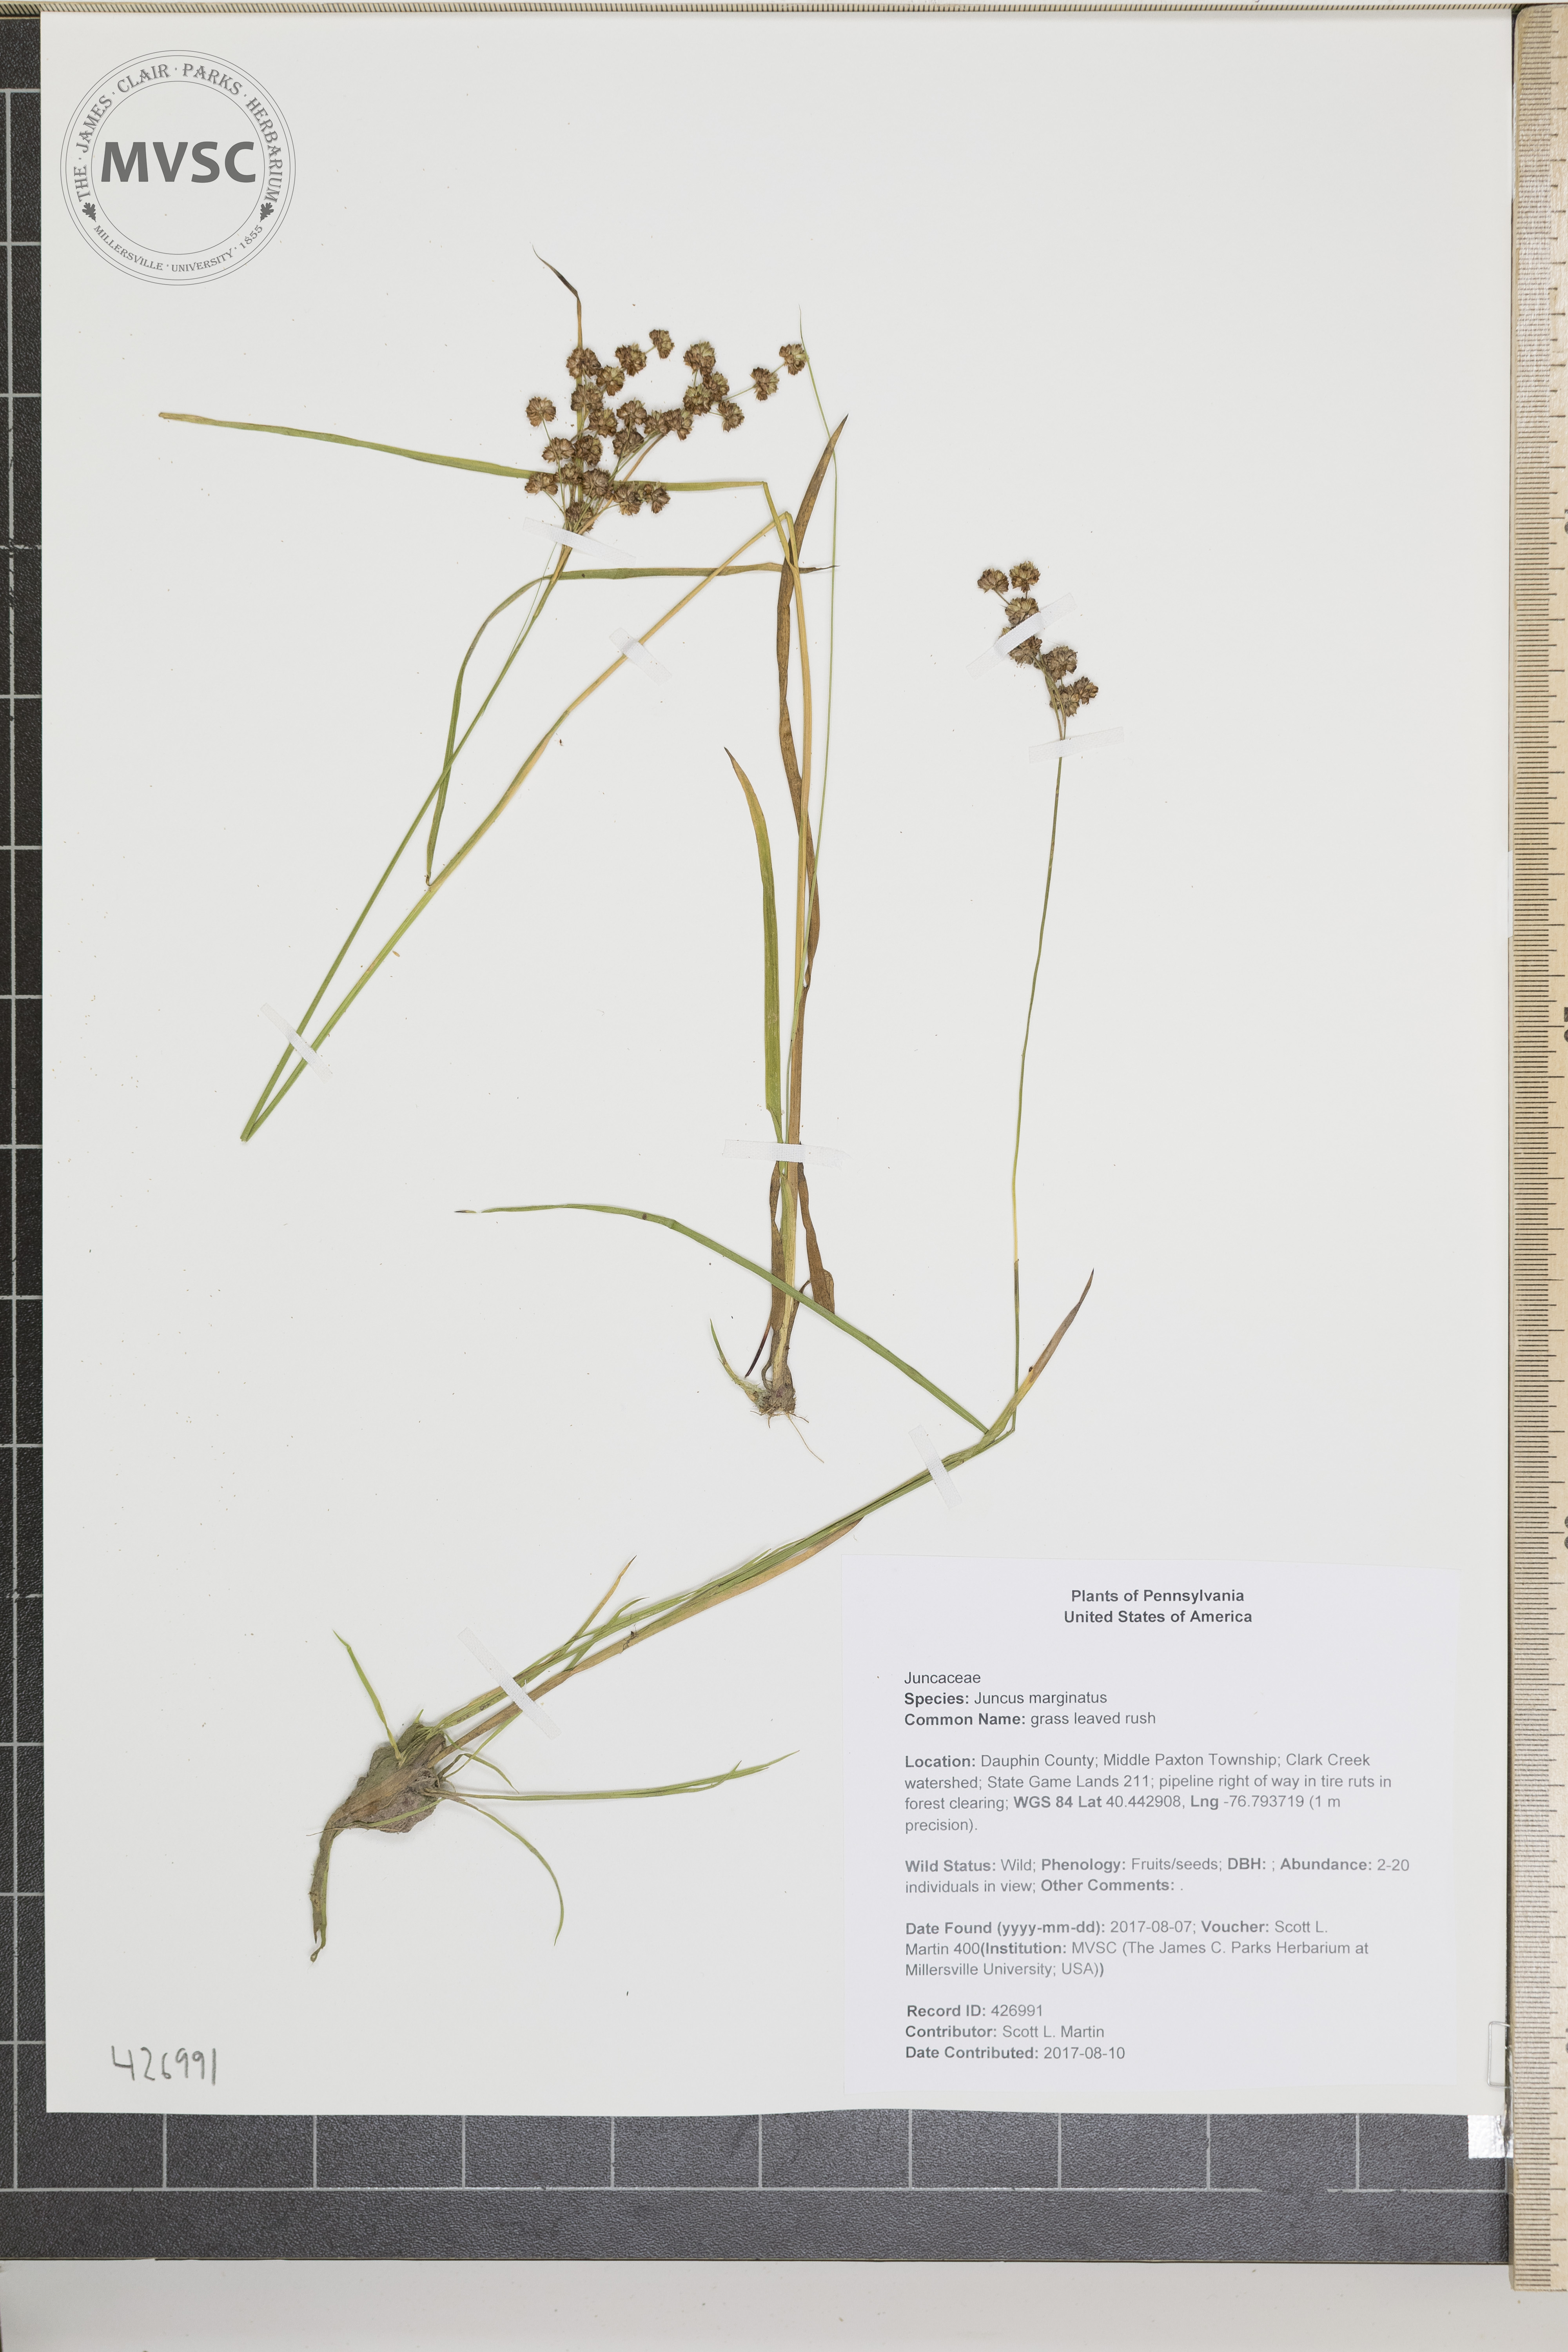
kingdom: Plantae
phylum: Tracheophyta
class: Liliopsida
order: Poales
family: Juncaceae
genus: Juncus
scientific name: Juncus marginatus
